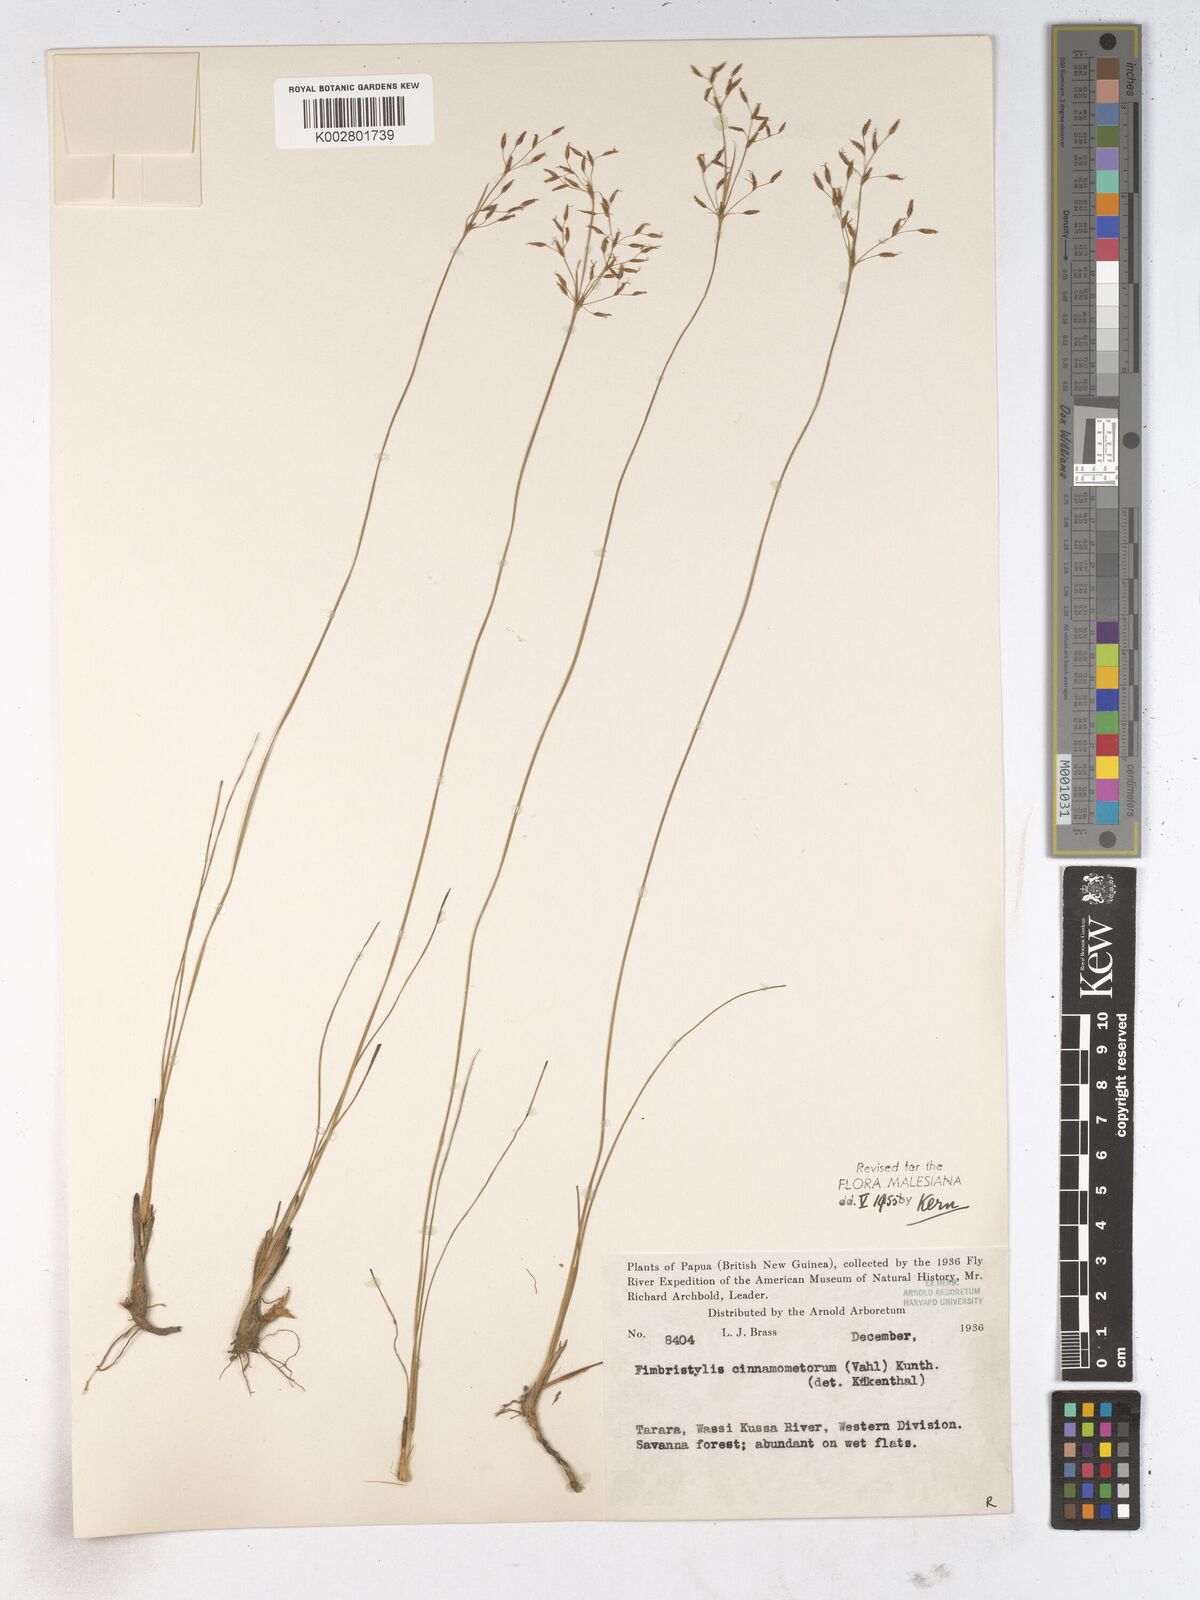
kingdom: Plantae
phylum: Tracheophyta
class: Liliopsida
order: Poales
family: Cyperaceae
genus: Fimbristylis
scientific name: Fimbristylis cinnamometorum
